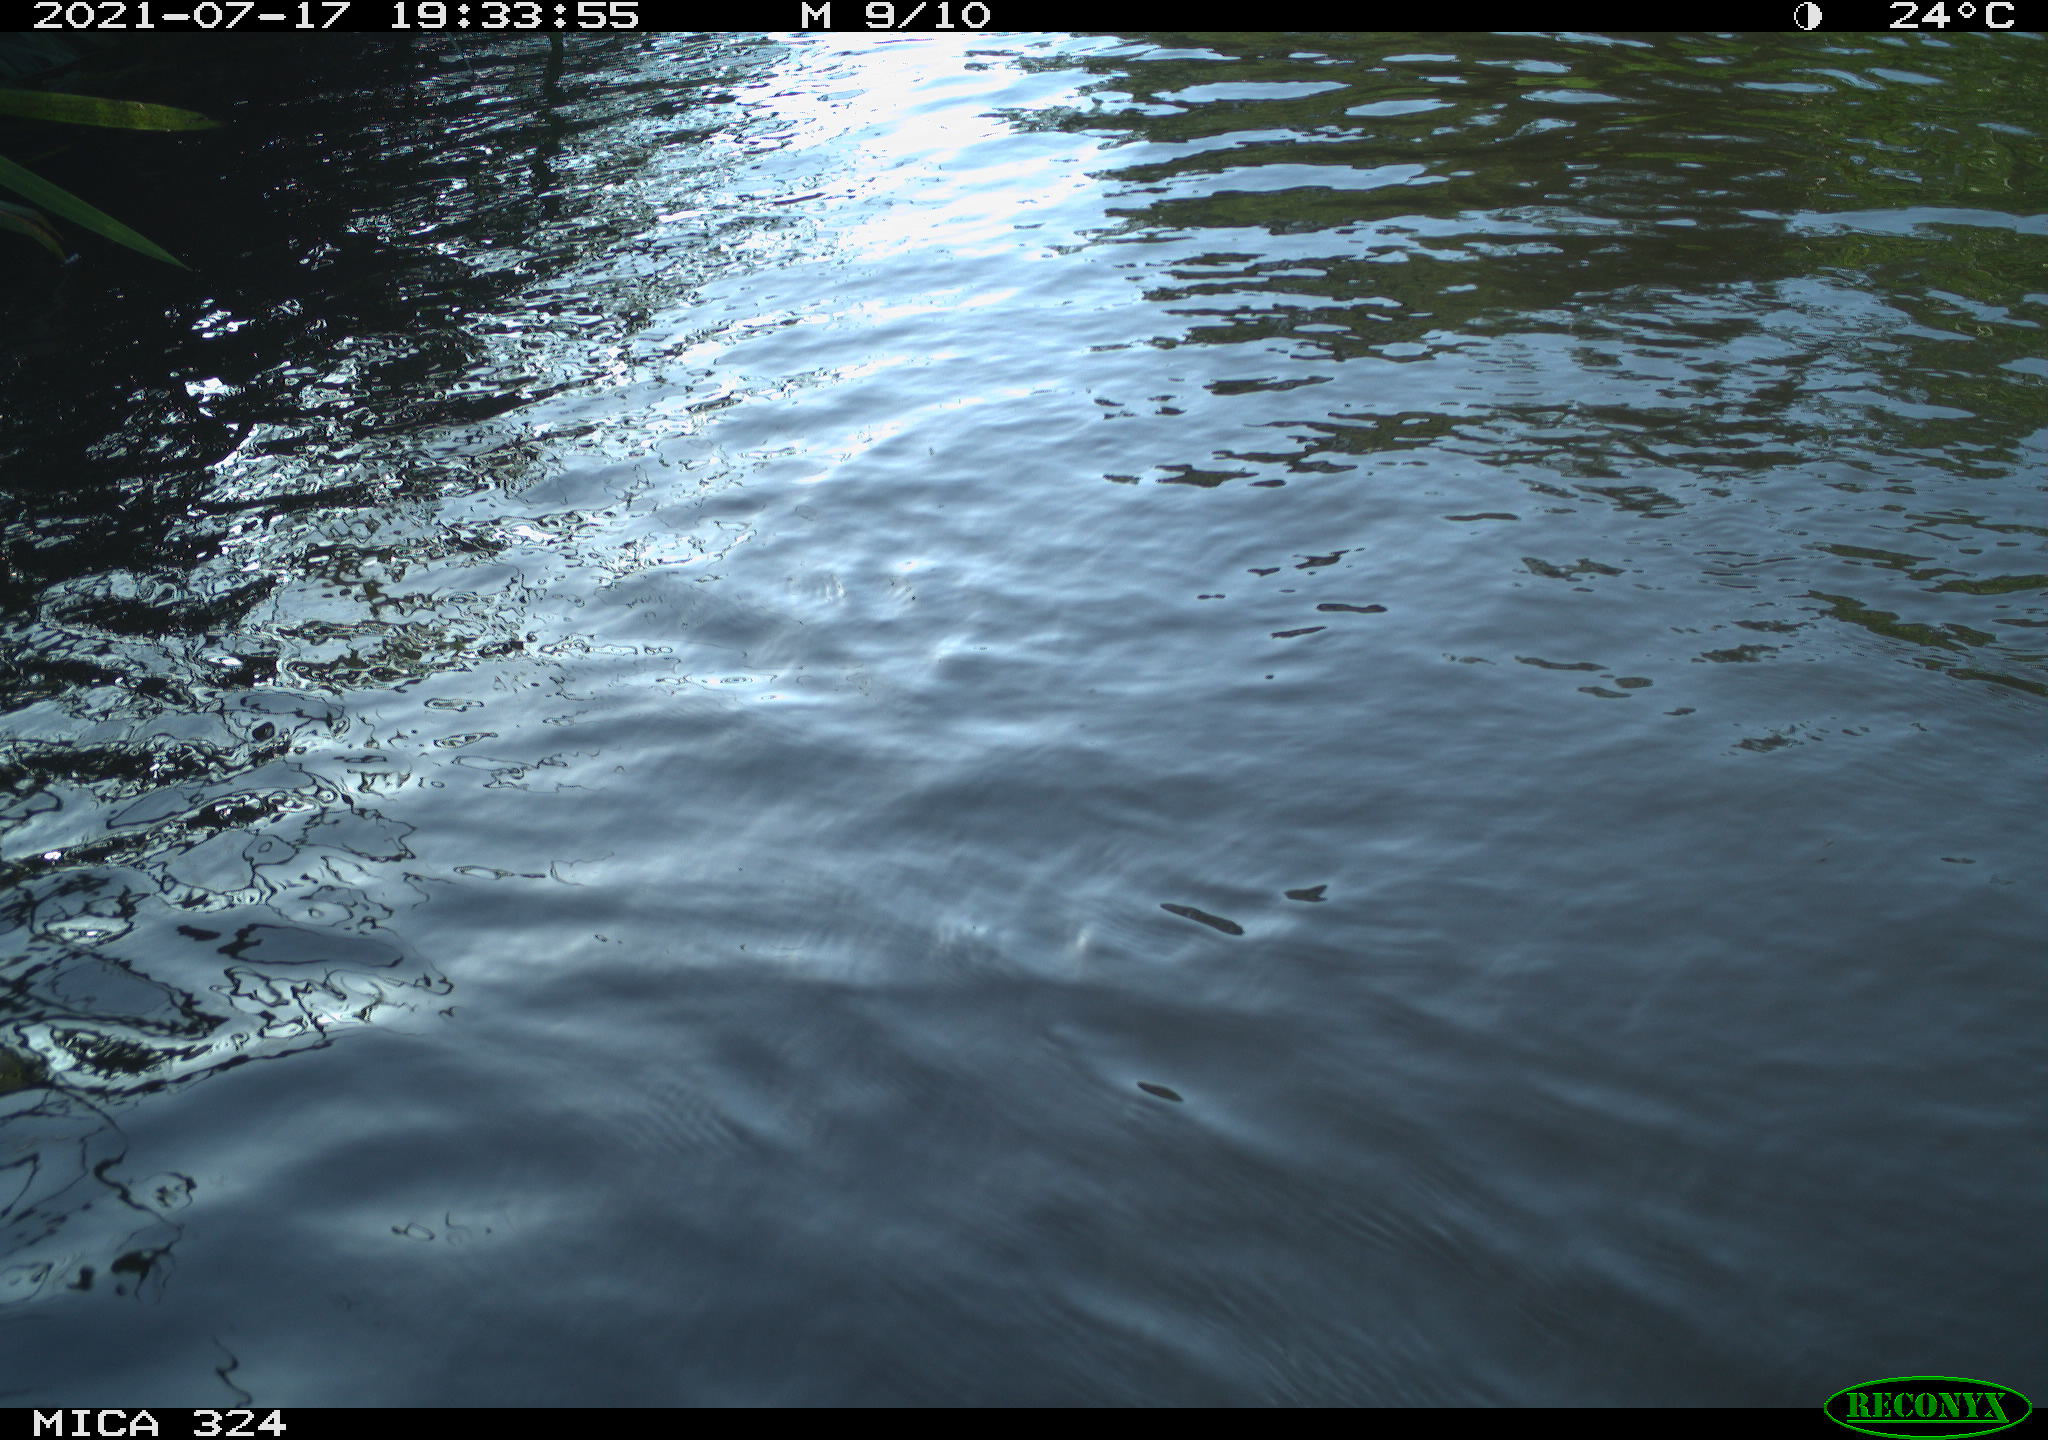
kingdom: Animalia
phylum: Chordata
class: Aves
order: Anseriformes
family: Anatidae
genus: Anas
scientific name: Anas platyrhynchos
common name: Mallard
